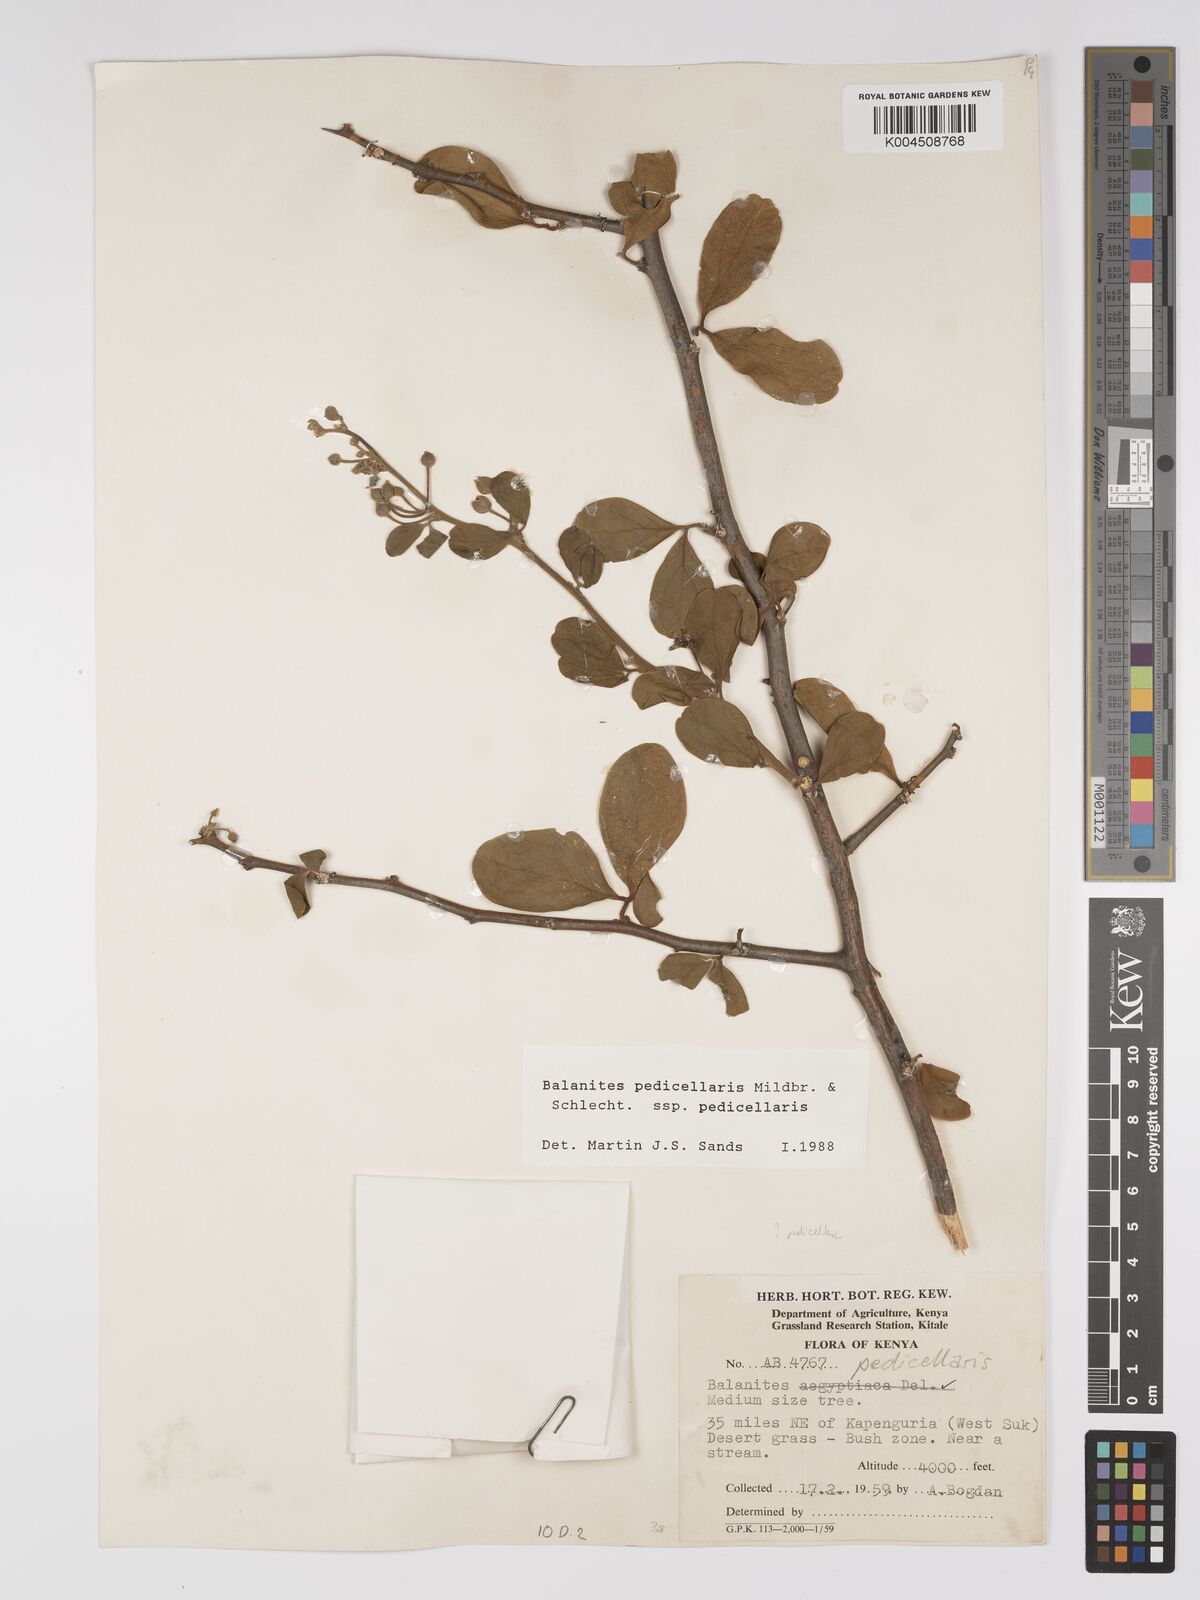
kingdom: Plantae
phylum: Tracheophyta
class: Magnoliopsida
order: Zygophyllales
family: Zygophyllaceae
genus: Balanites
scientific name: Balanites pedicellaris
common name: Small green-thorn
